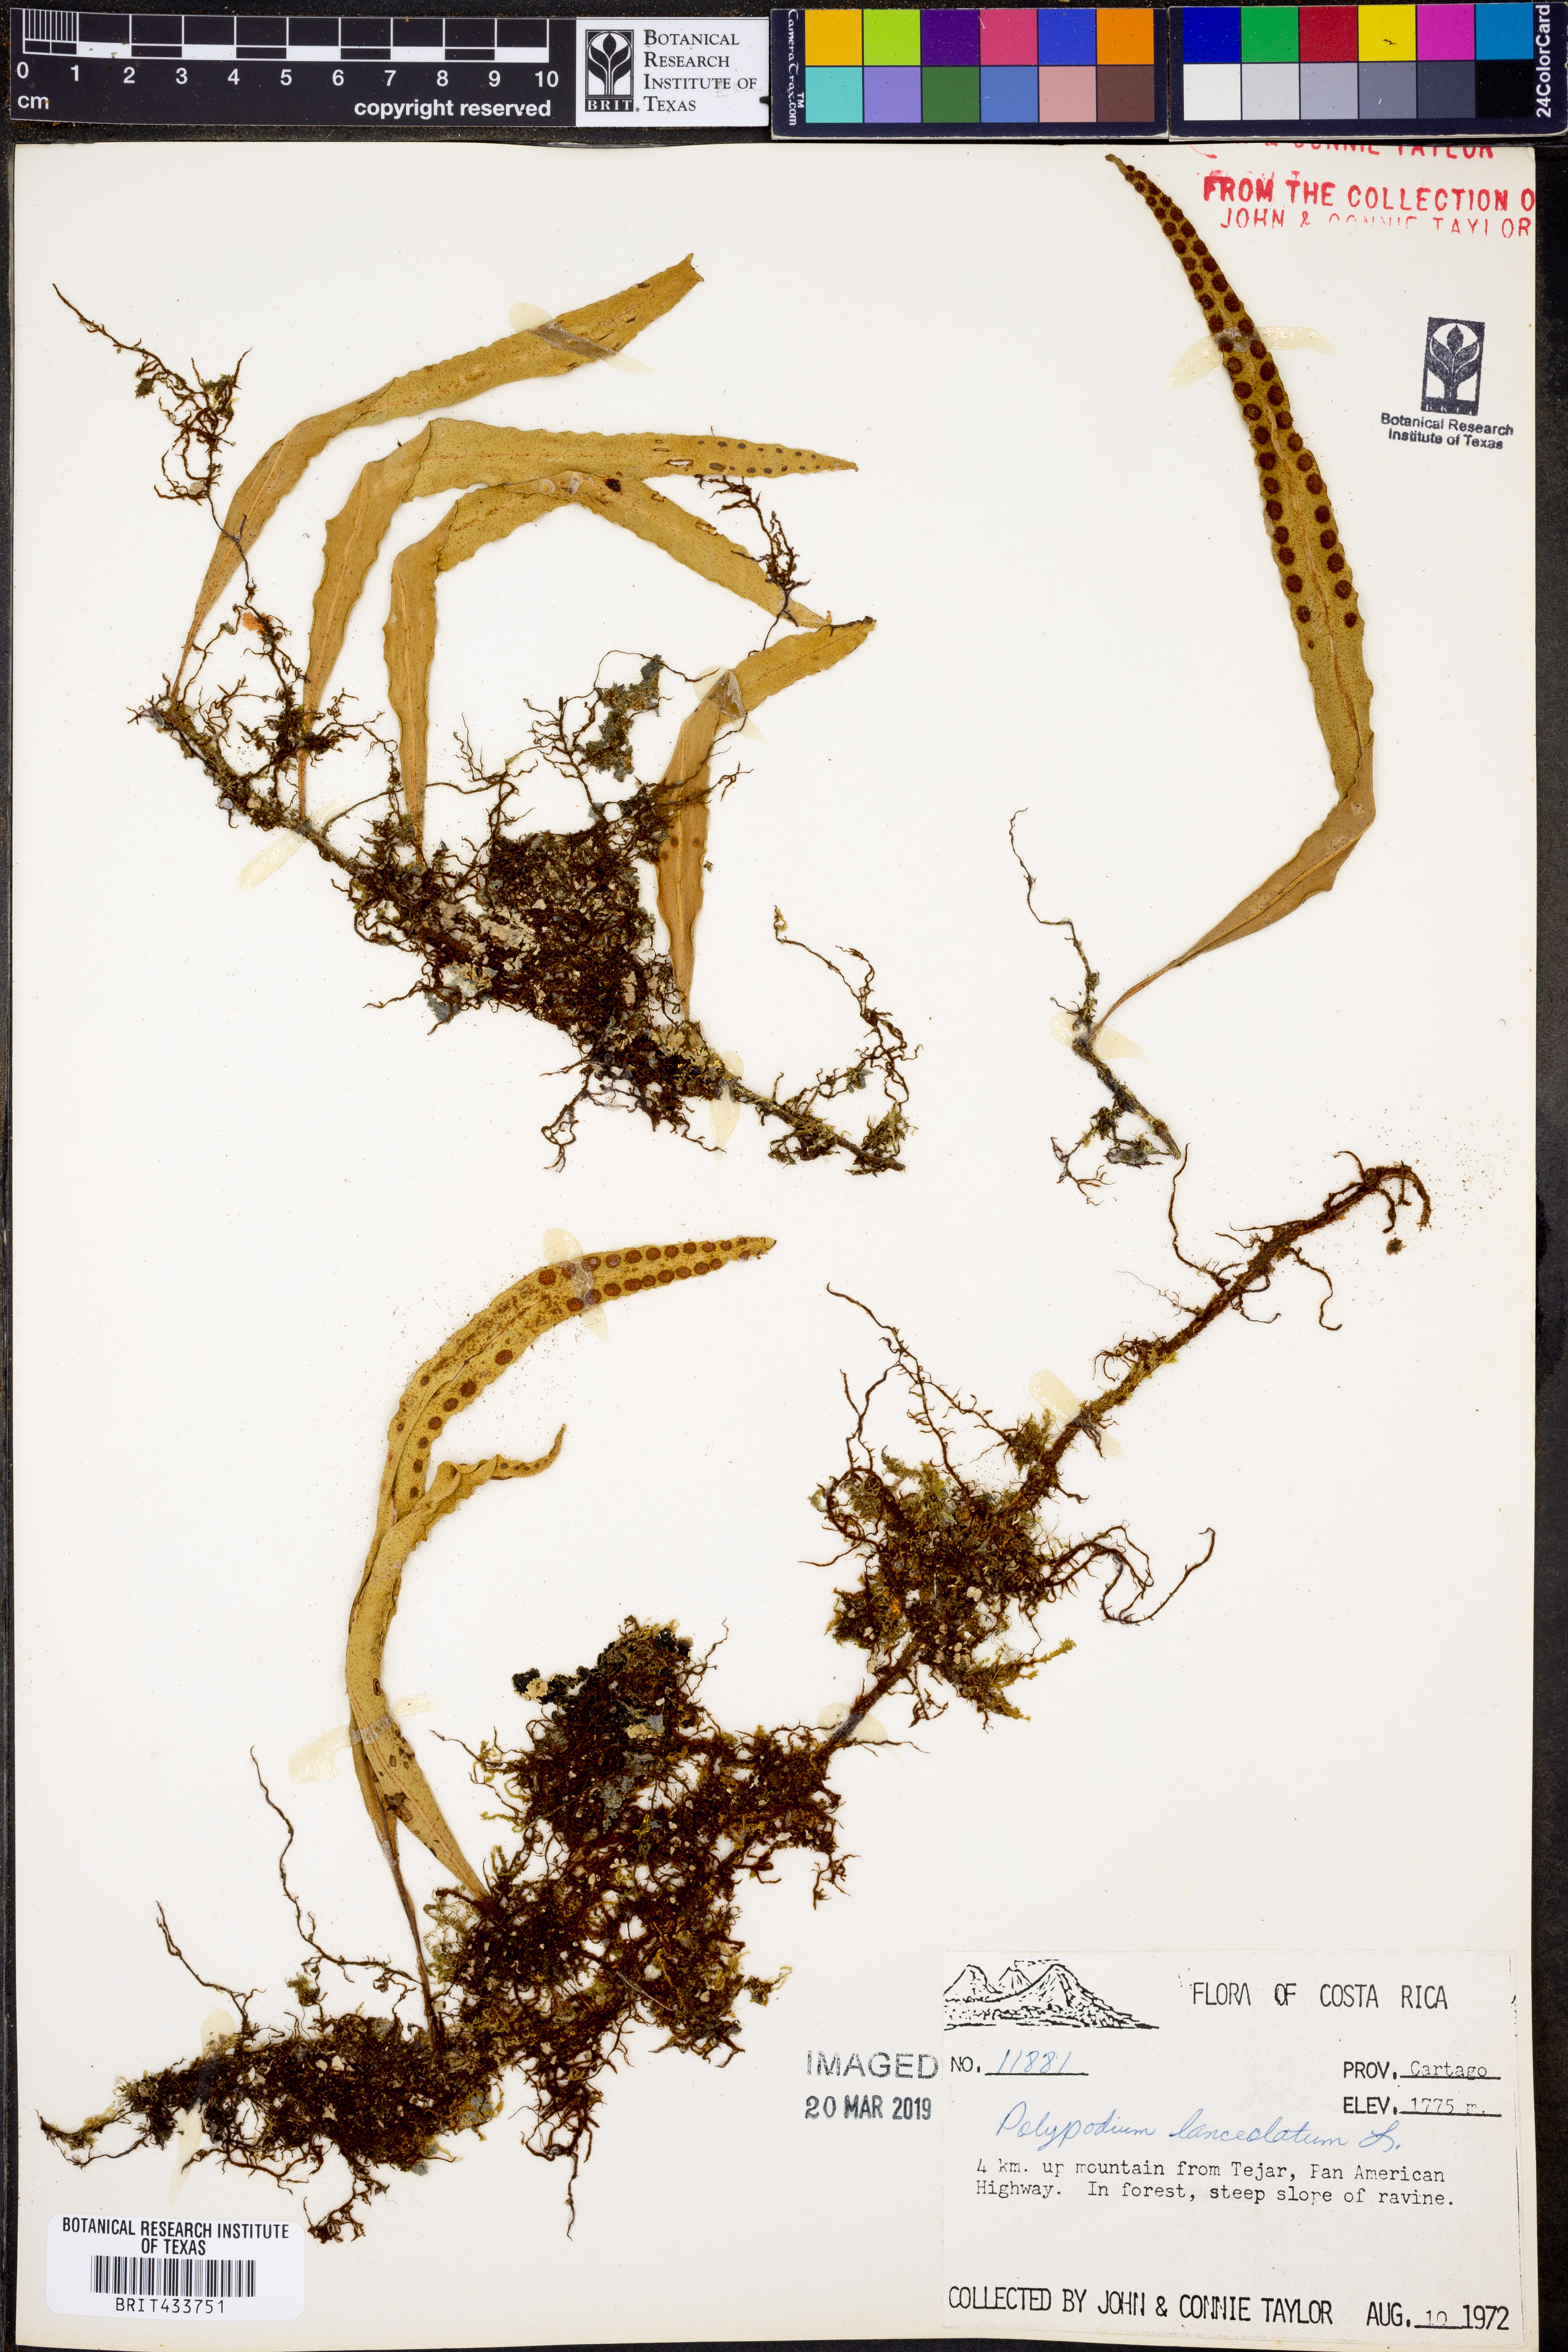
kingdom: Plantae
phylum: Tracheophyta
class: Polypodiopsida
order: Polypodiales
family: Polypodiaceae
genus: Pleopeltis
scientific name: Pleopeltis macrocarpa
